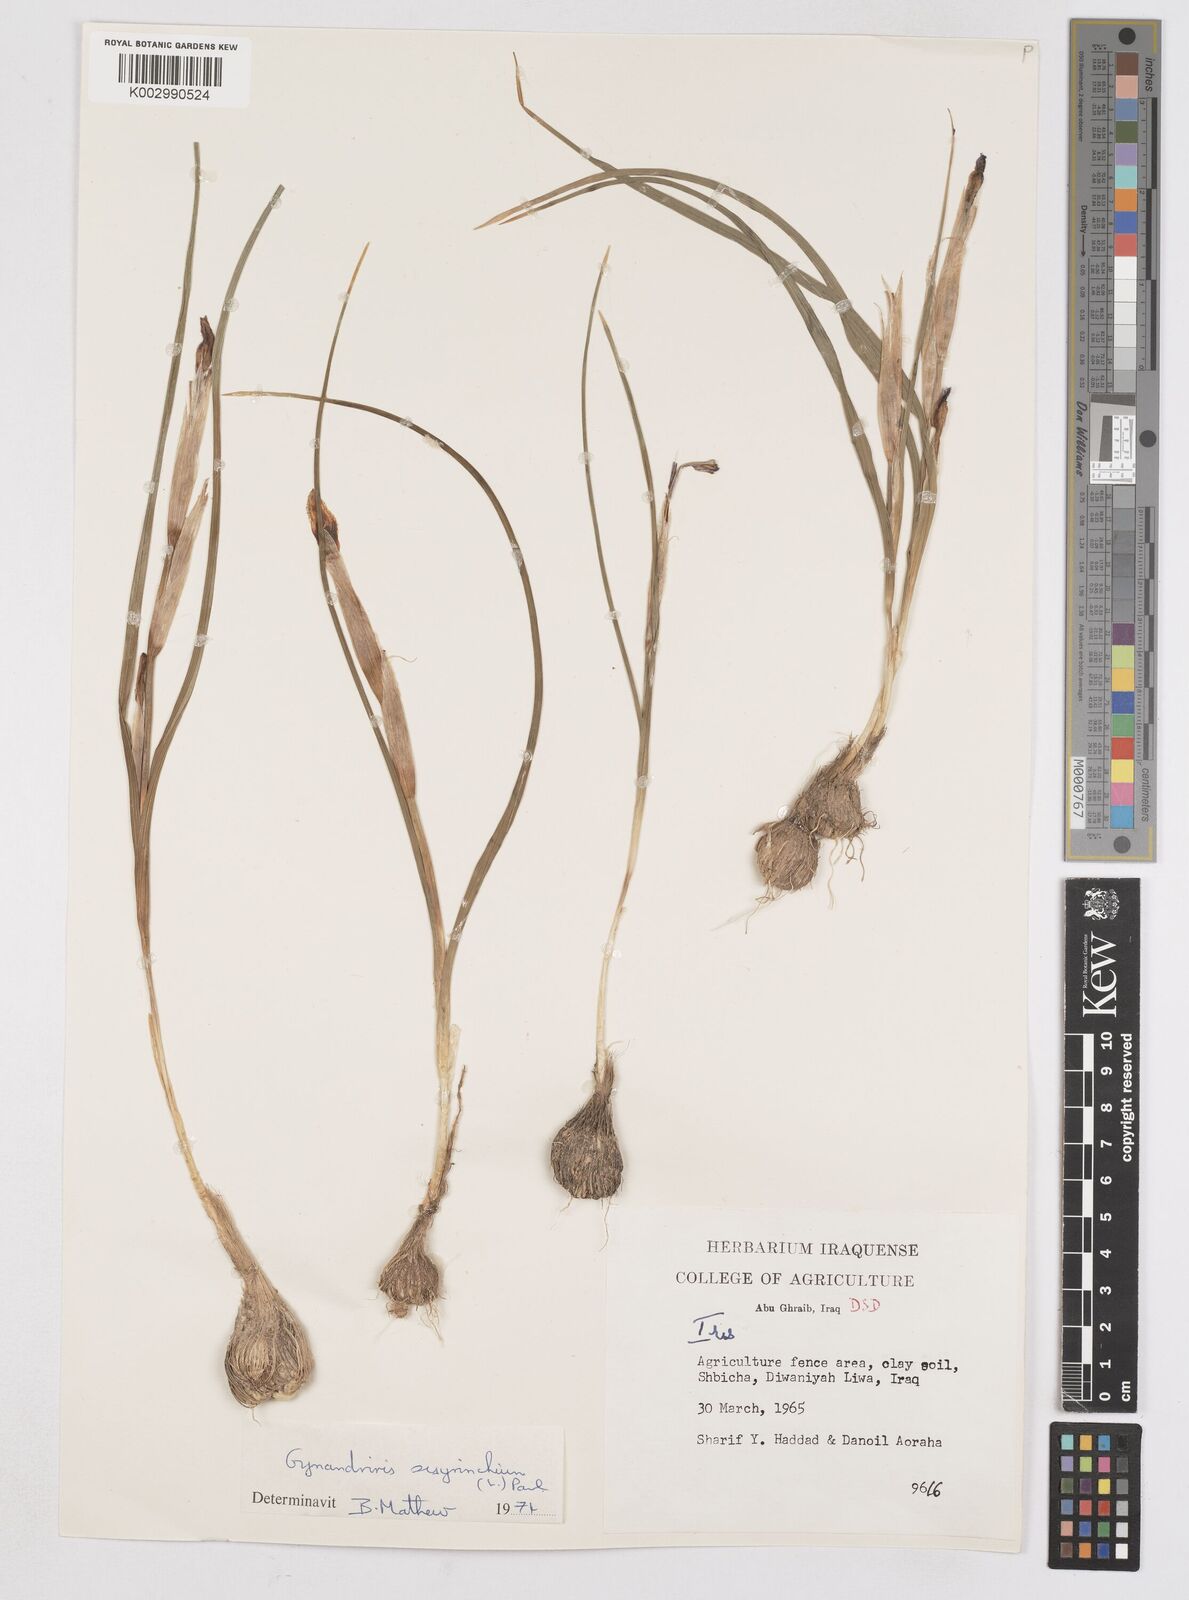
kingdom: Plantae
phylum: Tracheophyta
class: Liliopsida
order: Asparagales
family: Iridaceae
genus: Moraea
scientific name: Moraea sisyrinchium
